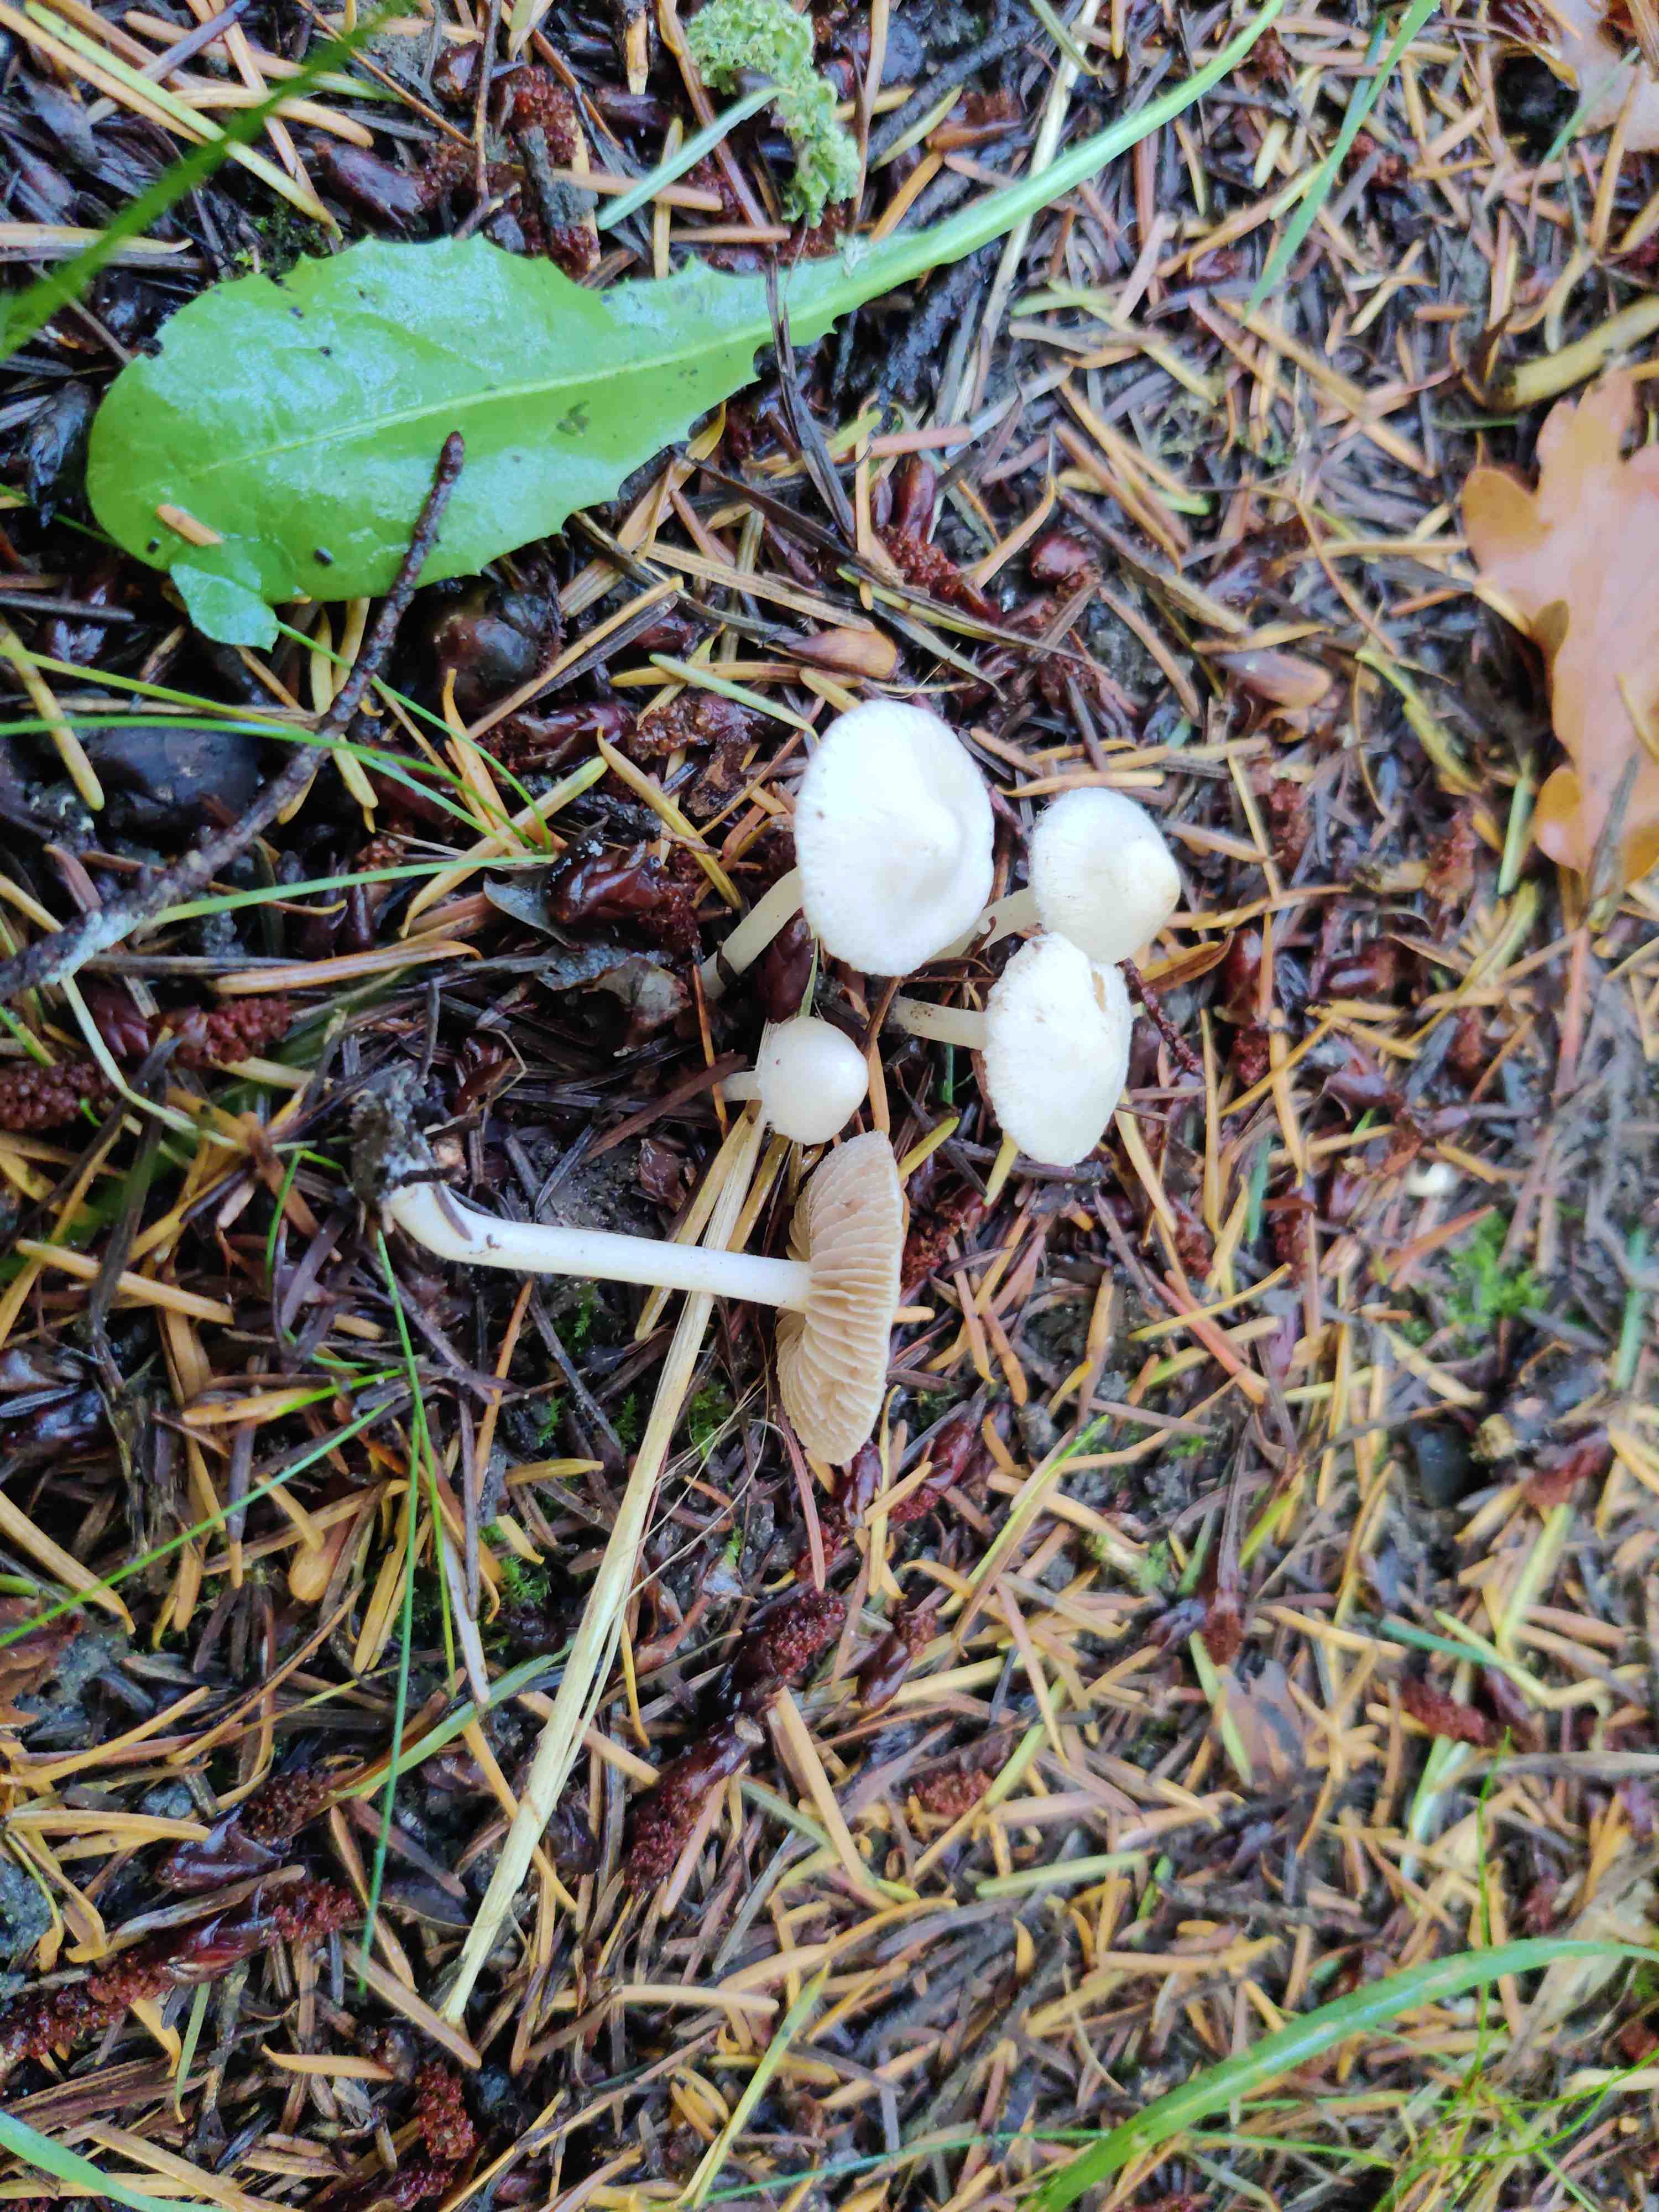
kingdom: Fungi
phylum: Basidiomycota
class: Agaricomycetes
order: Agaricales
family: Inocybaceae
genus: Inocybe
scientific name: Inocybe
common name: almindelig trævlhat
